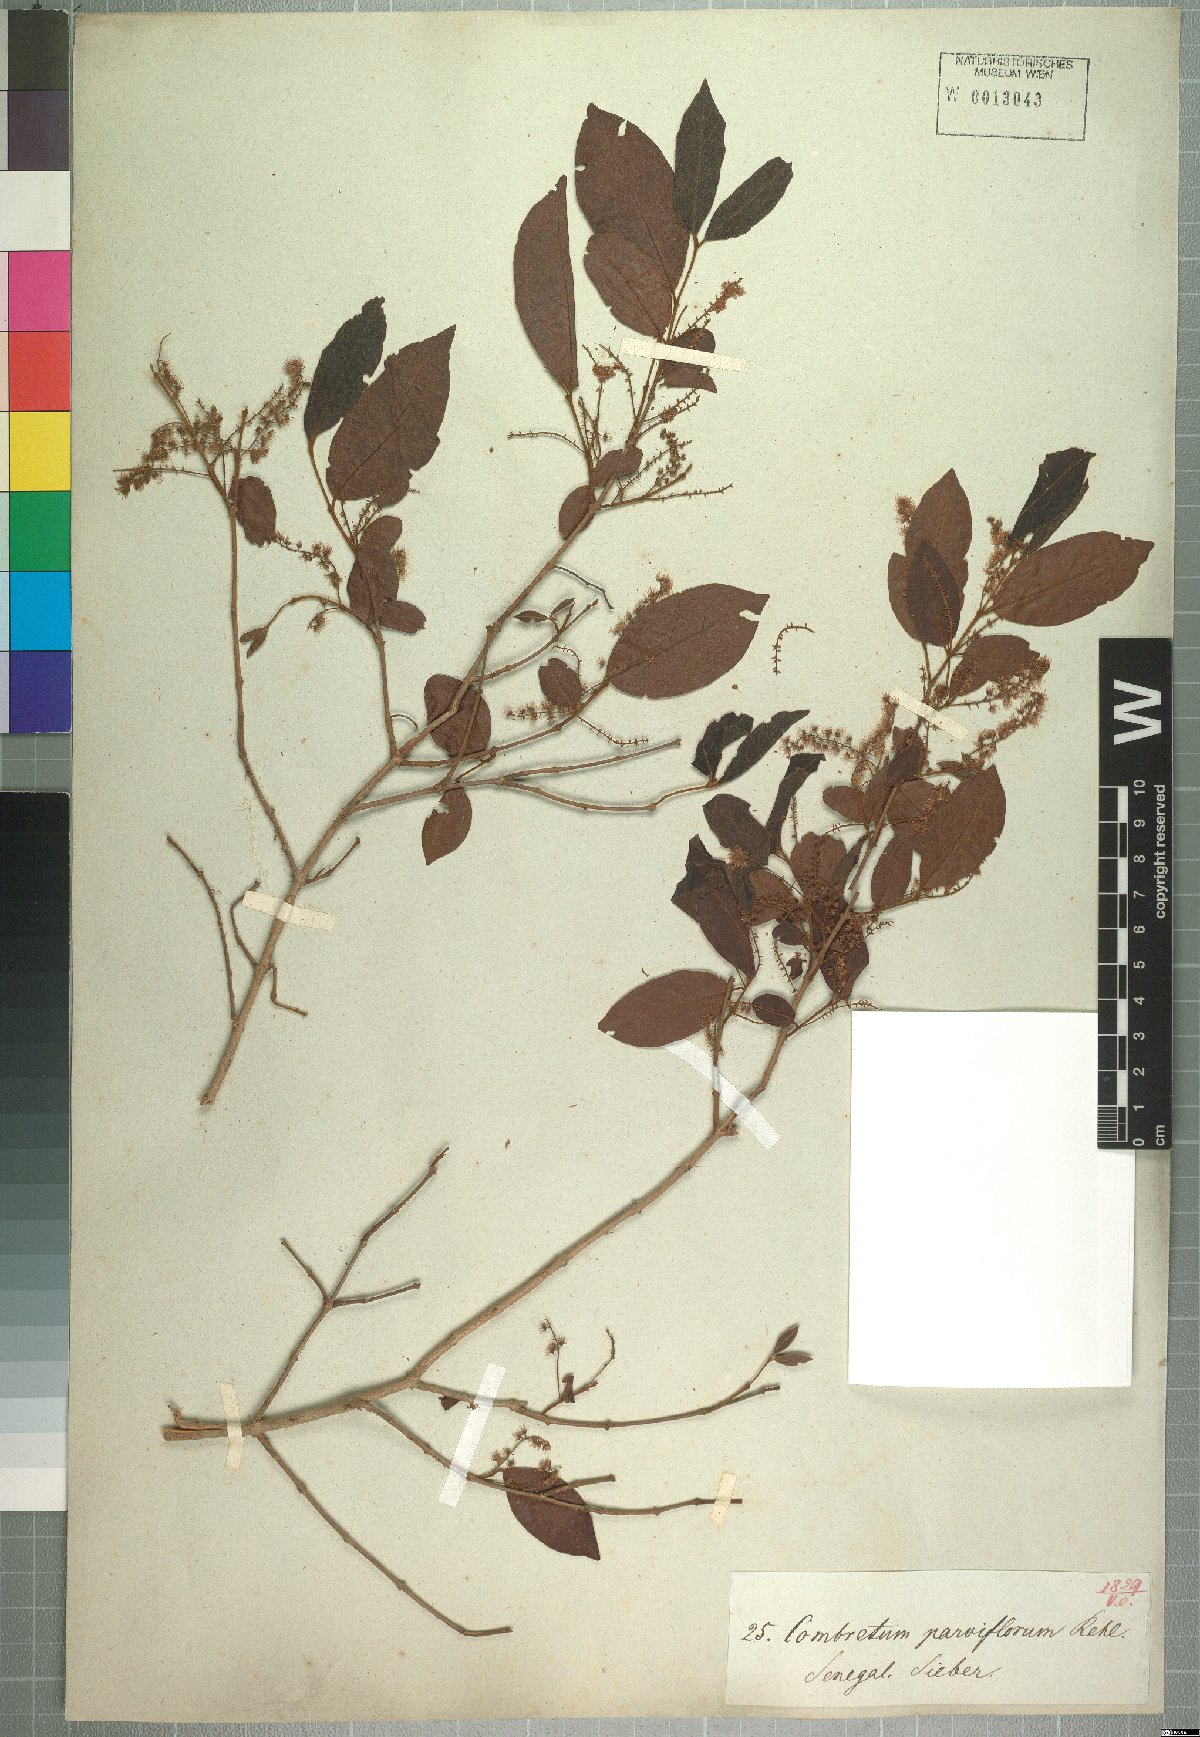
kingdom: Plantae
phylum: Tracheophyta
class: Magnoliopsida
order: Myrtales
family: Combretaceae
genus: Combretum
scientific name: Combretum micranthum
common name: Opium-antidote
